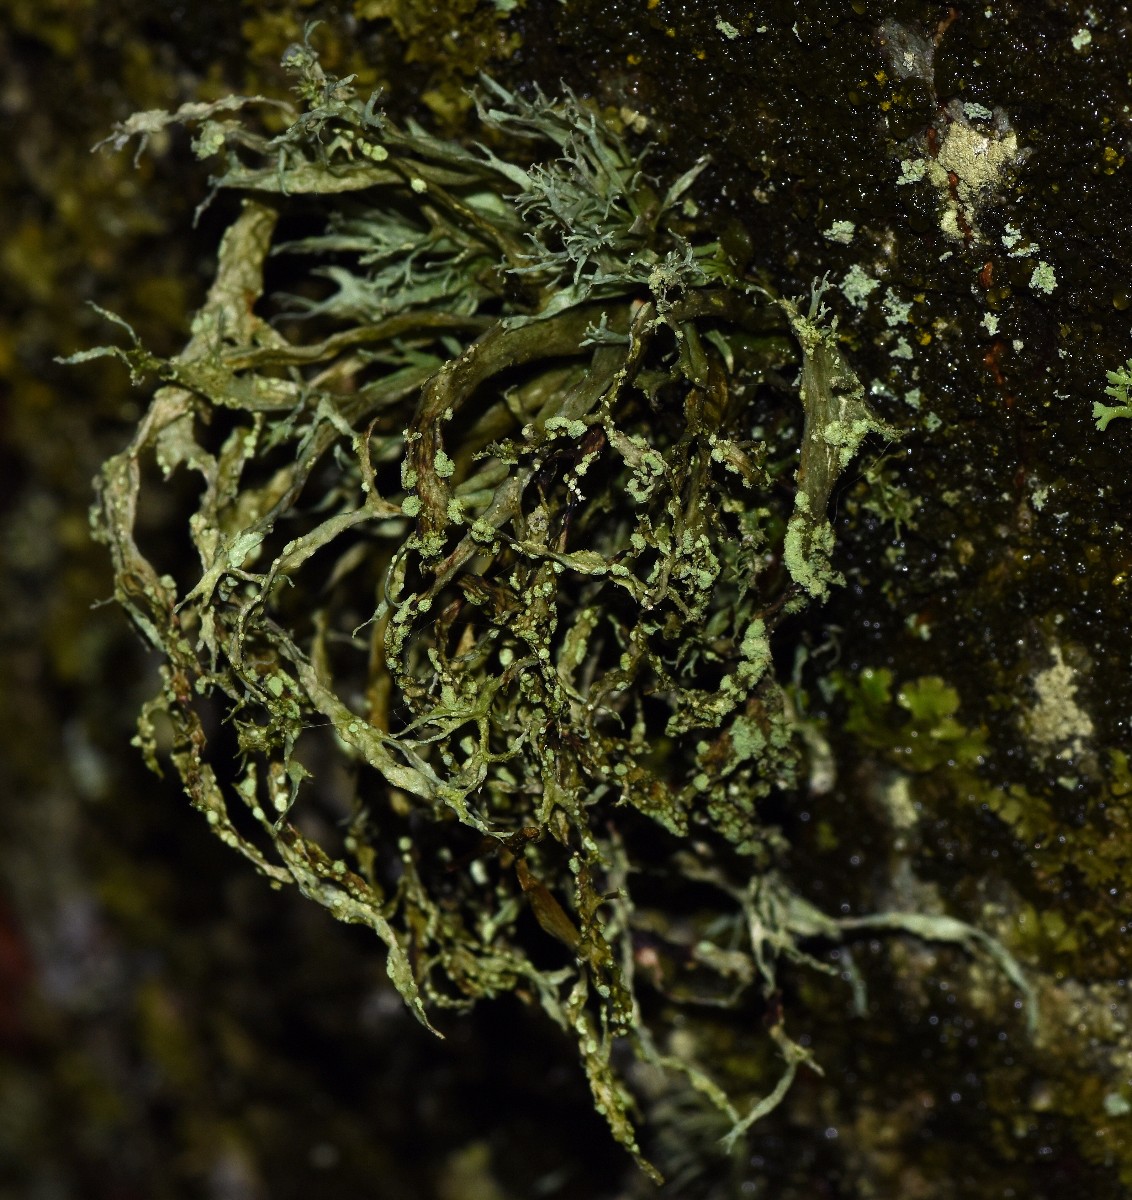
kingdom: Fungi
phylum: Ascomycota
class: Lecanoromycetes
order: Lecanorales
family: Ramalinaceae
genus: Ramalina
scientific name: Ramalina farinacea
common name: melet grenlav
